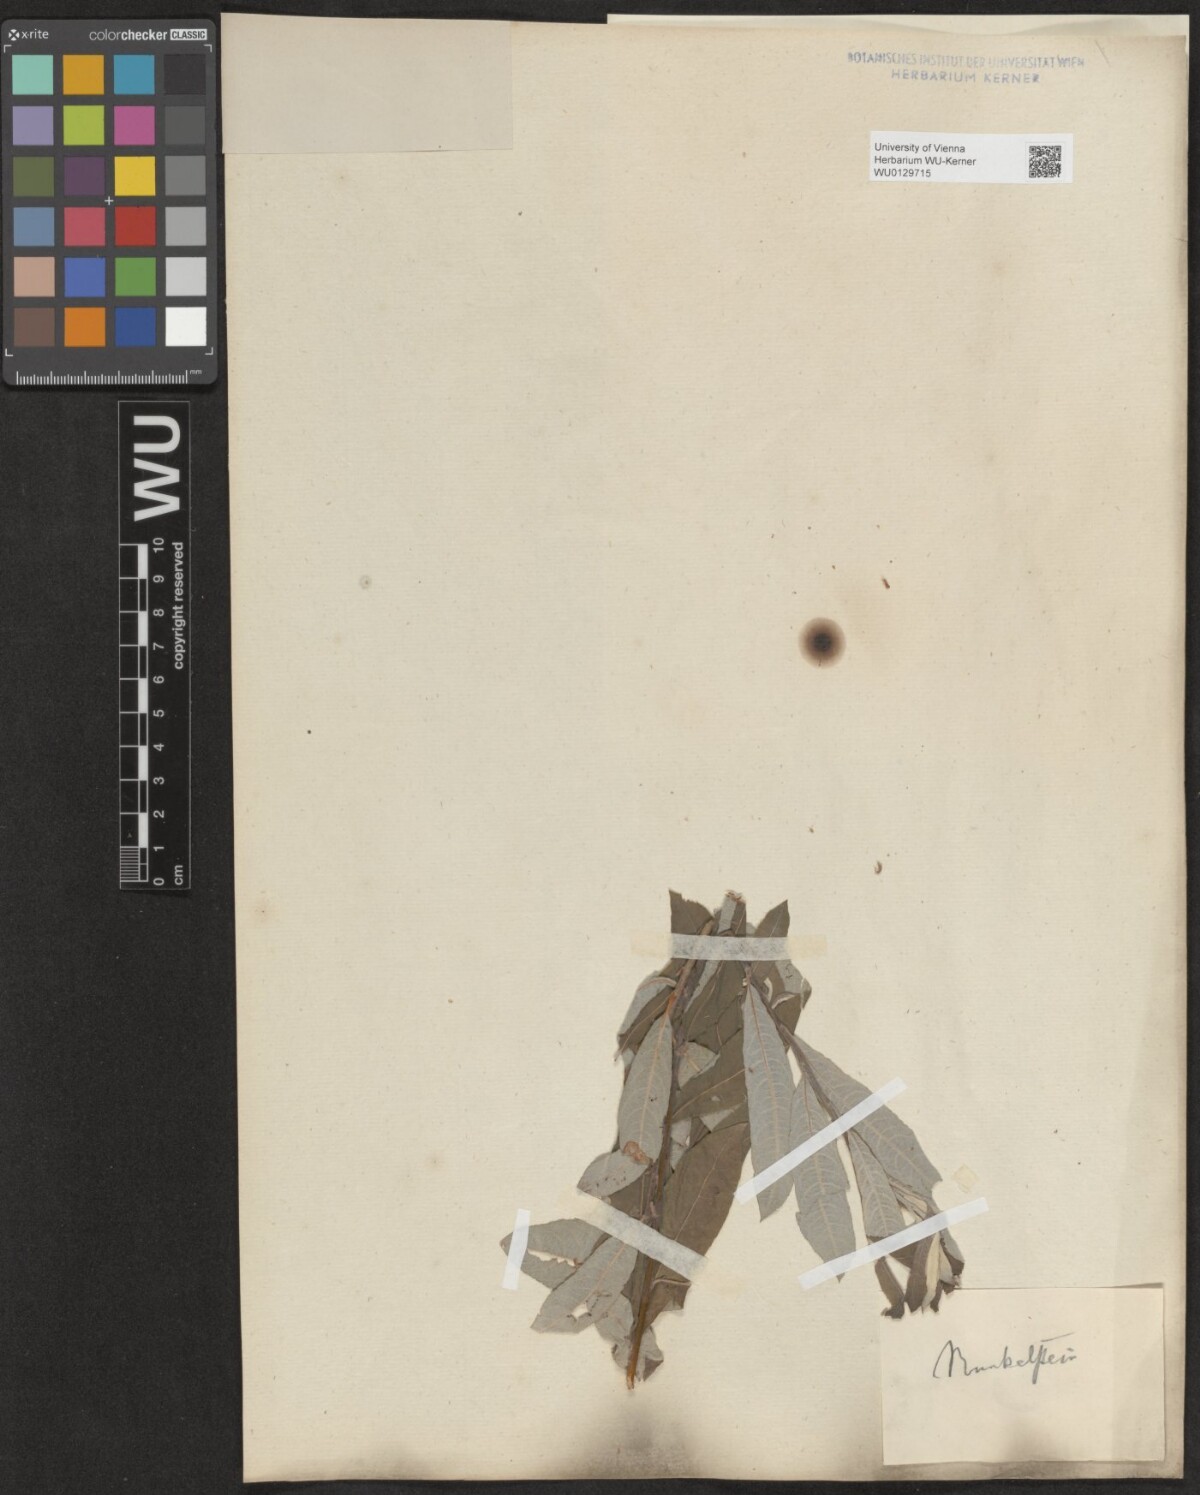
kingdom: Plantae
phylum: Tracheophyta
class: Magnoliopsida
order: Malpighiales
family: Salicaceae
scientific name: Salicaceae
